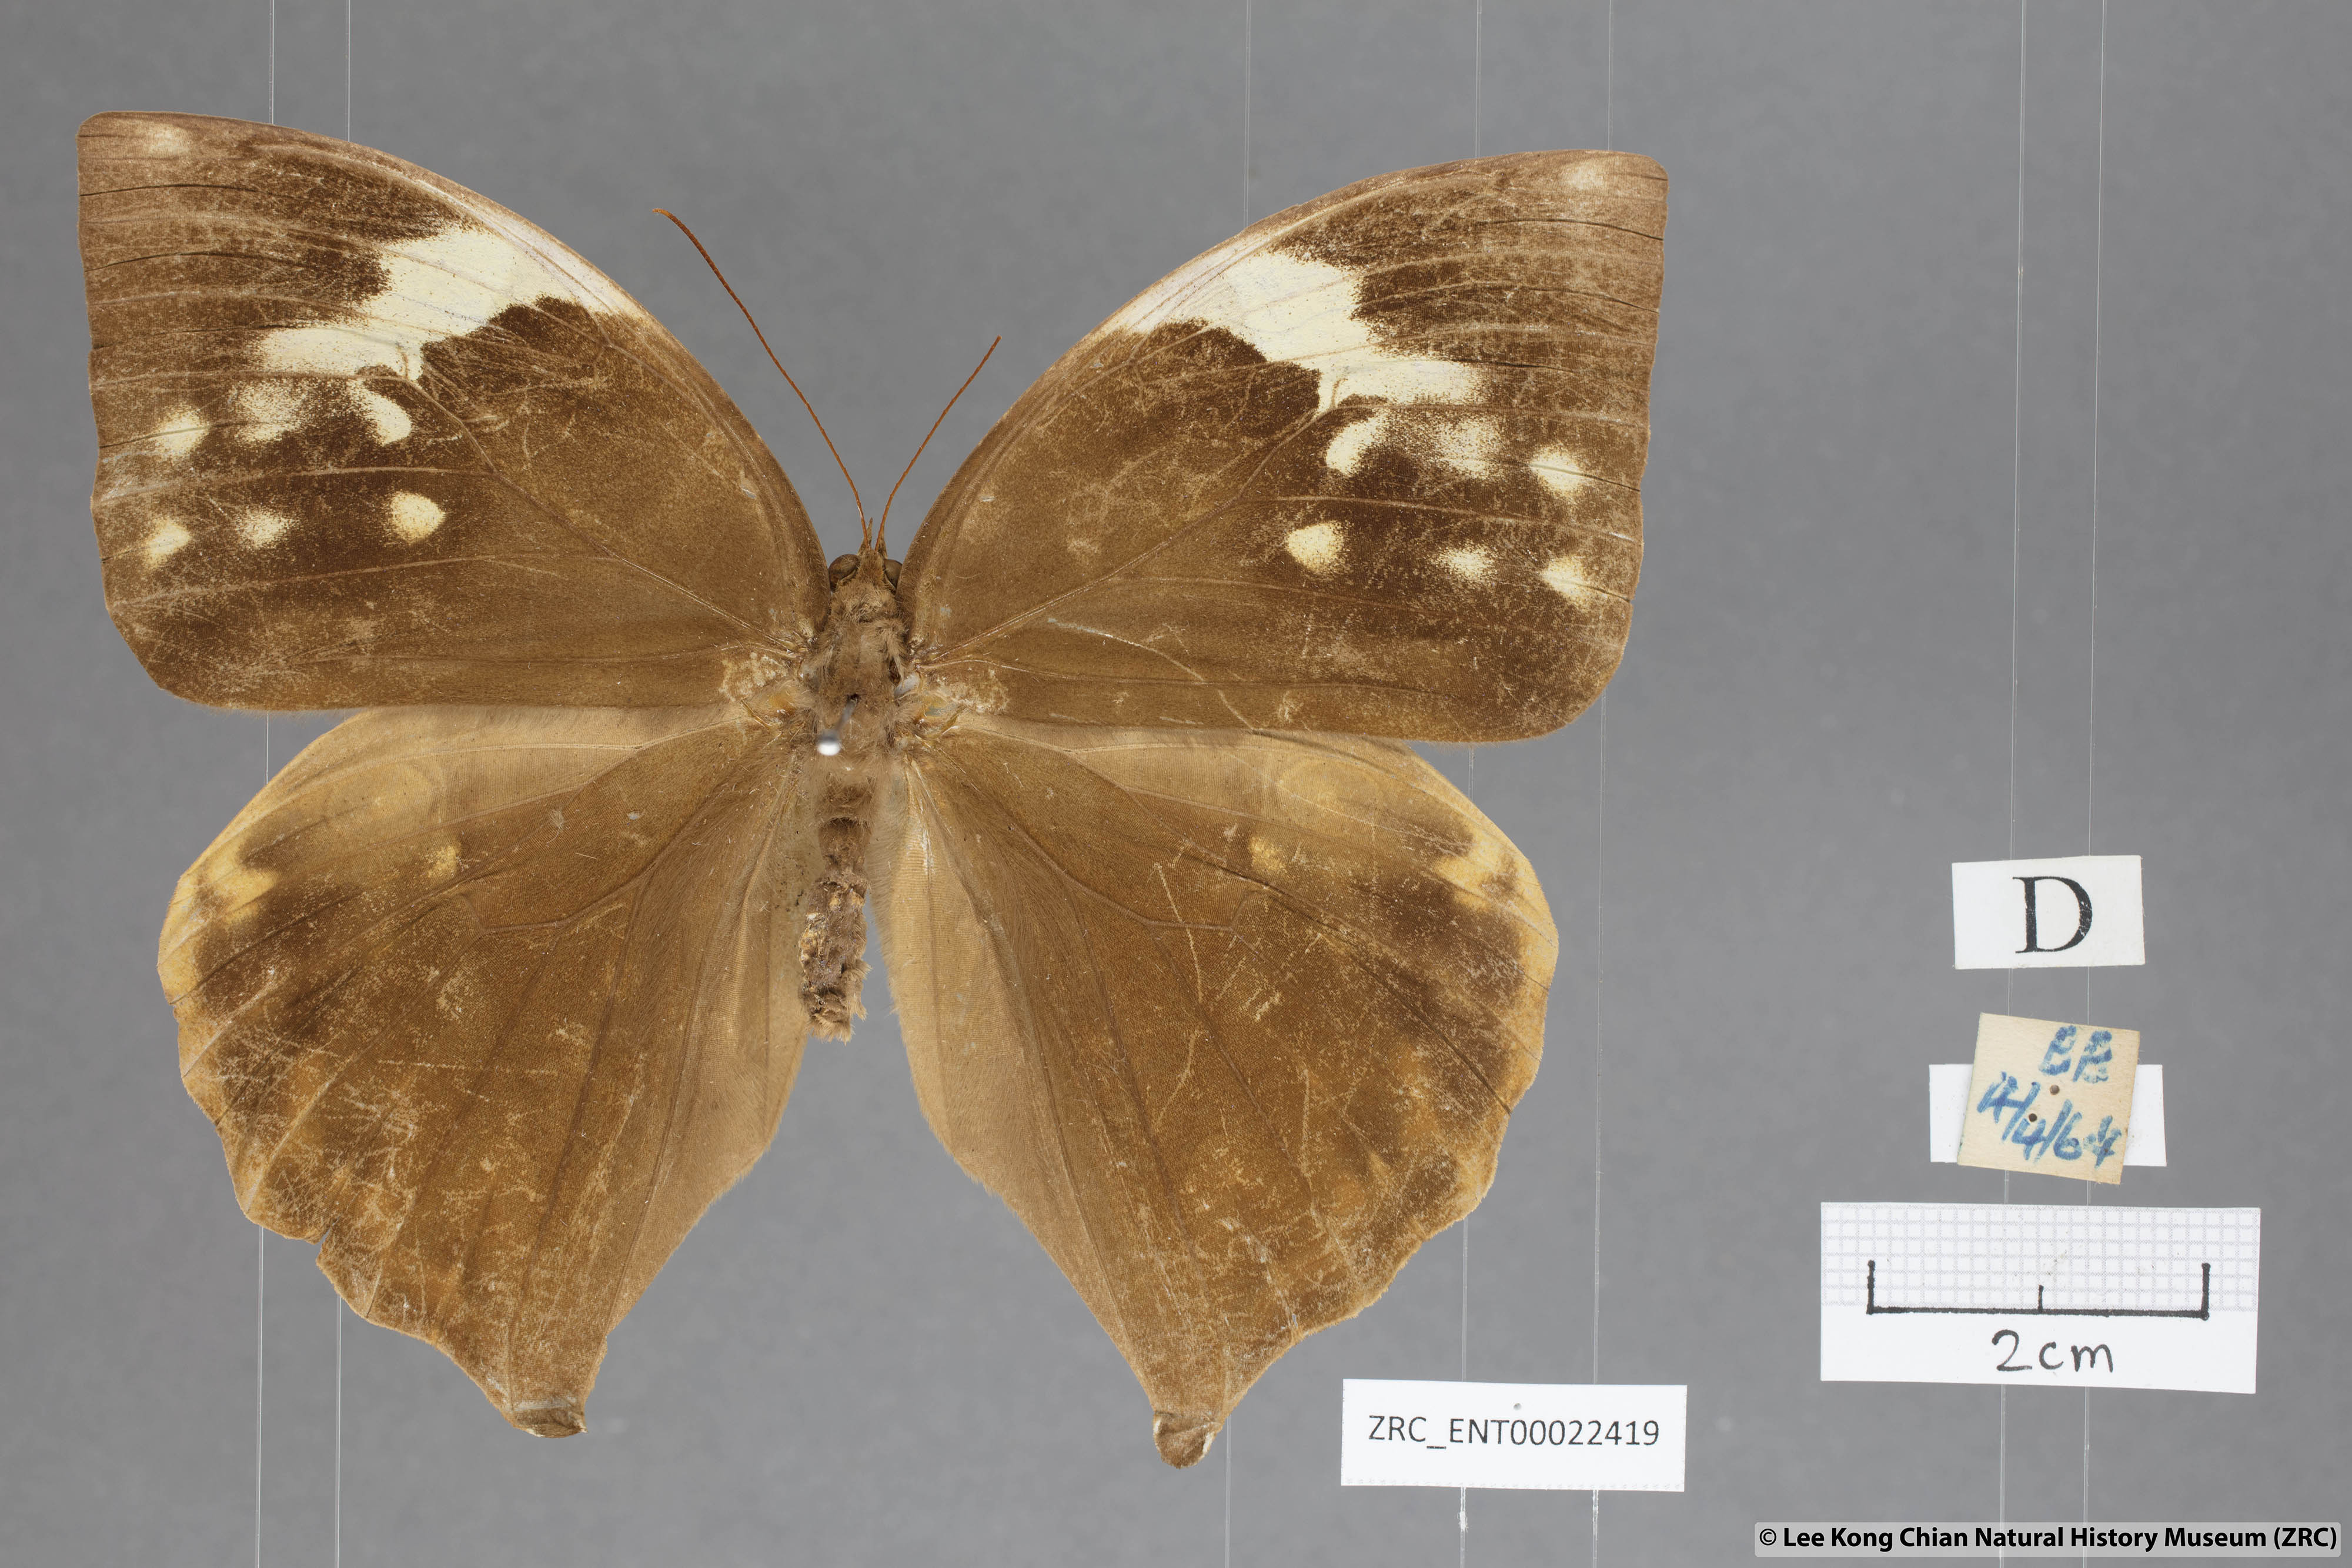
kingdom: Animalia
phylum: Arthropoda
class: Insecta
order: Lepidoptera
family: Nymphalidae
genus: Zeuxidia
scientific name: Zeuxidia ameythystus
